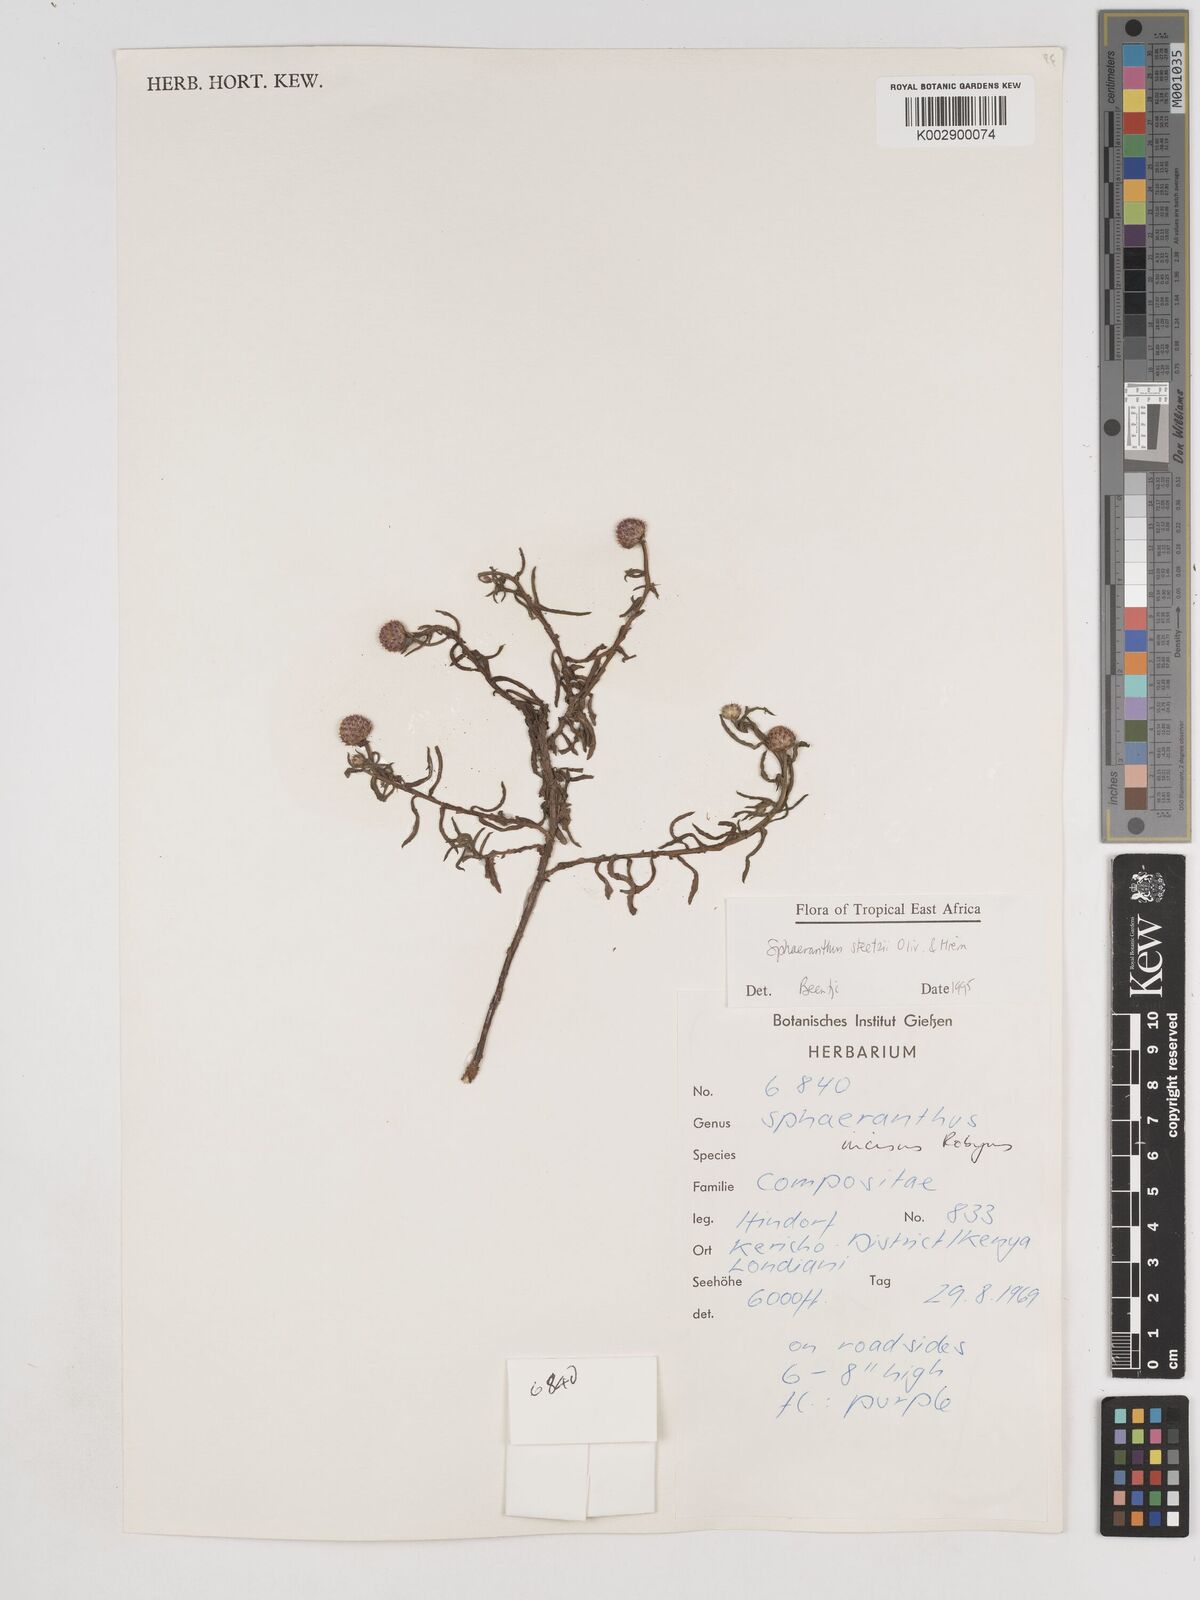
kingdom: Plantae
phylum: Tracheophyta
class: Magnoliopsida
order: Asterales
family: Asteraceae
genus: Sphaeranthus
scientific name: Sphaeranthus steetzii
